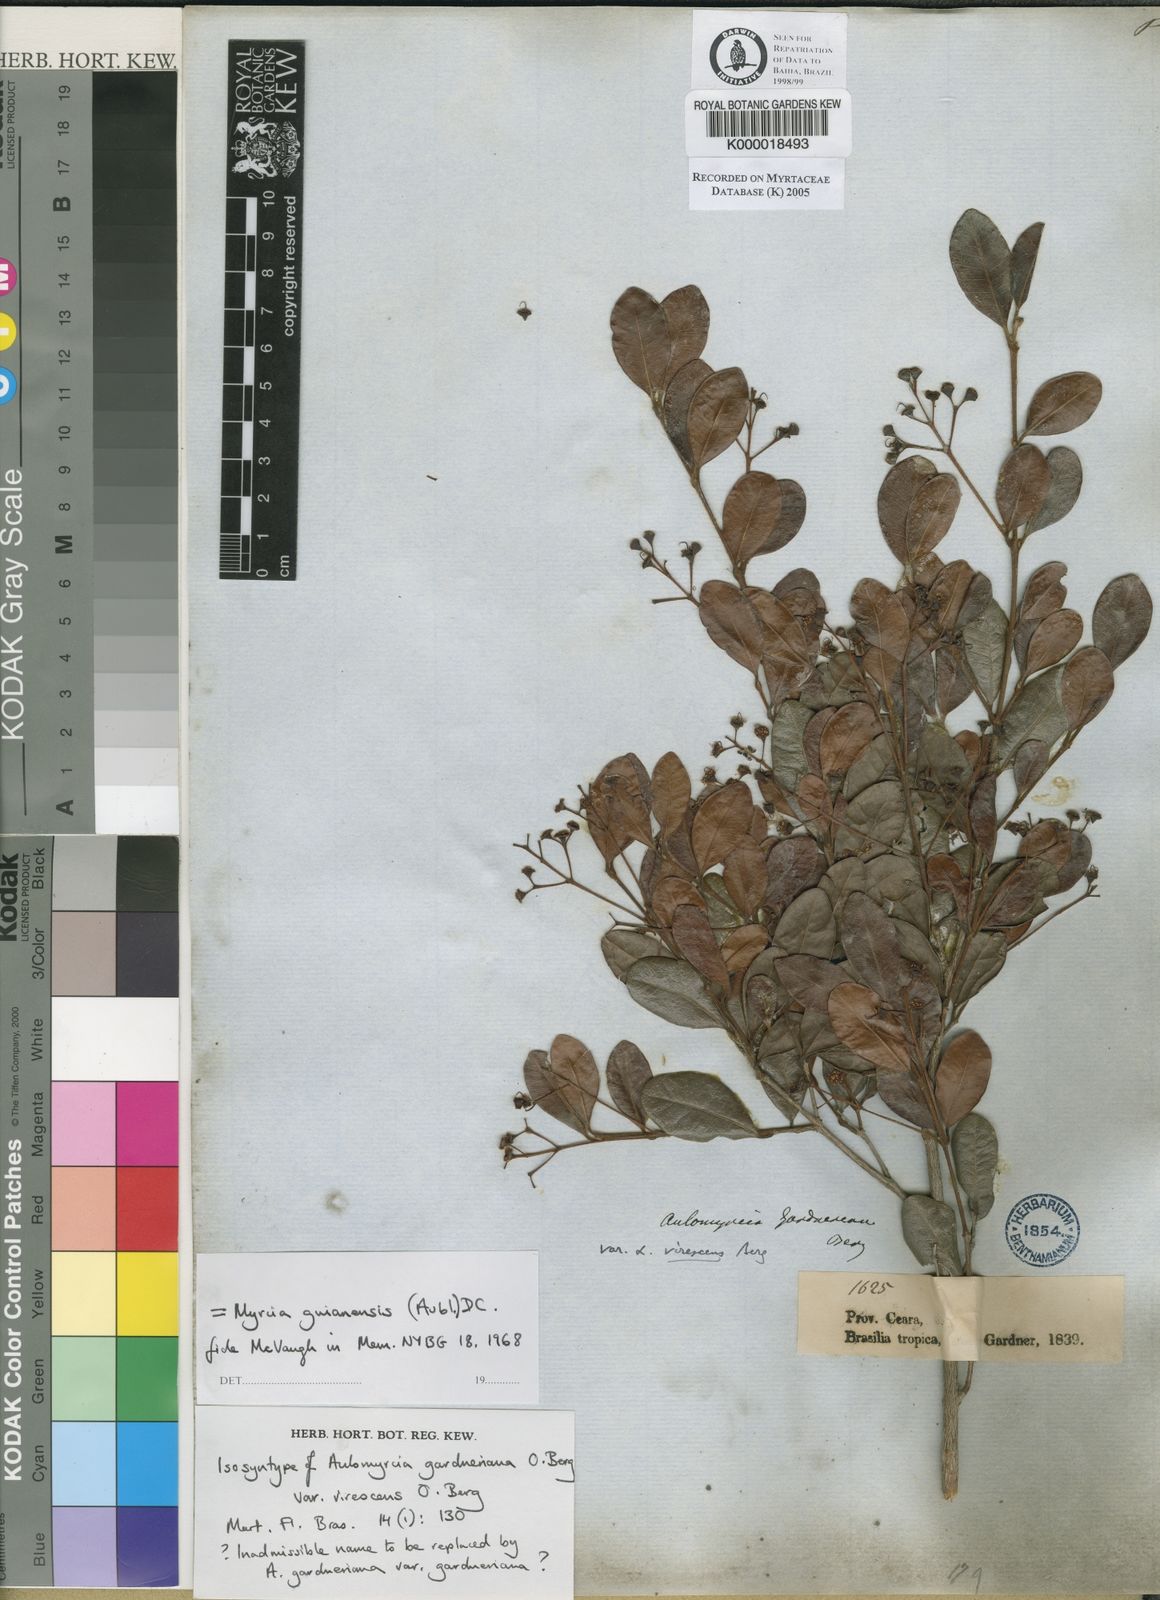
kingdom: Plantae
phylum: Tracheophyta
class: Magnoliopsida
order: Myrtales
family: Myrtaceae
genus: Myrcia
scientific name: Myrcia guianensis
